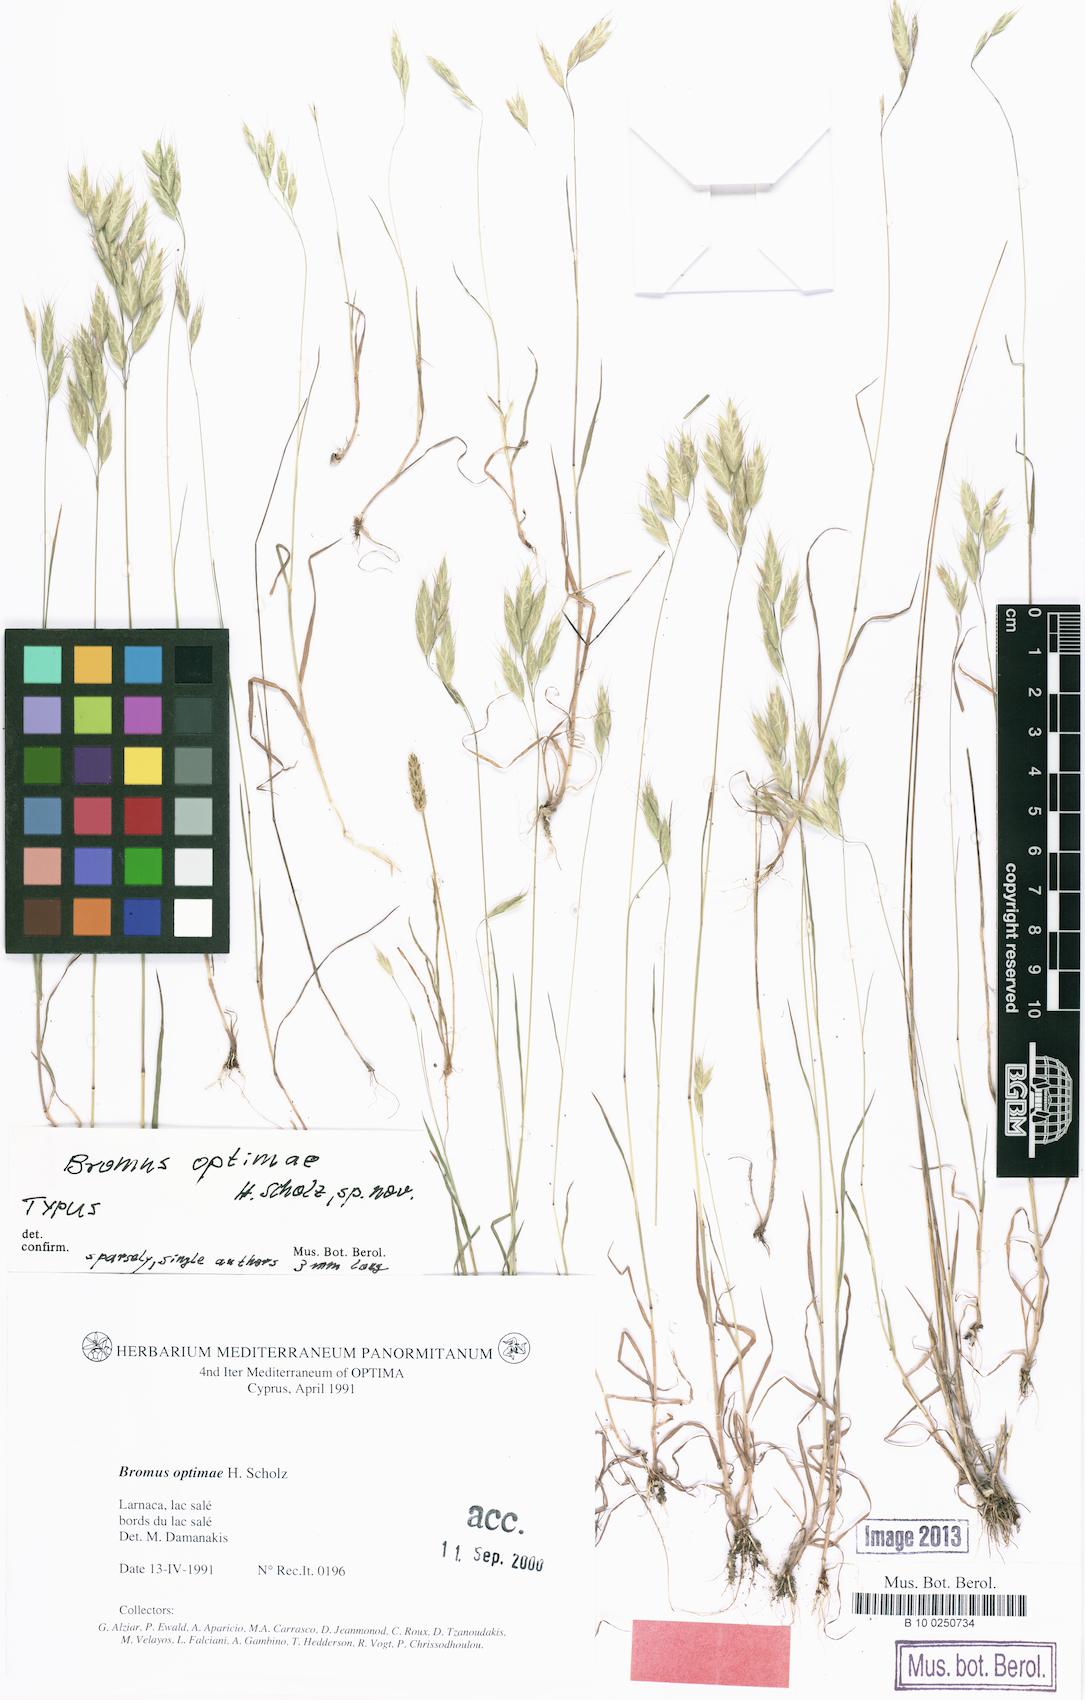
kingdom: Plantae
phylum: Tracheophyta
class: Liliopsida
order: Poales
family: Poaceae
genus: Bromus
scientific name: Bromus intermedius
